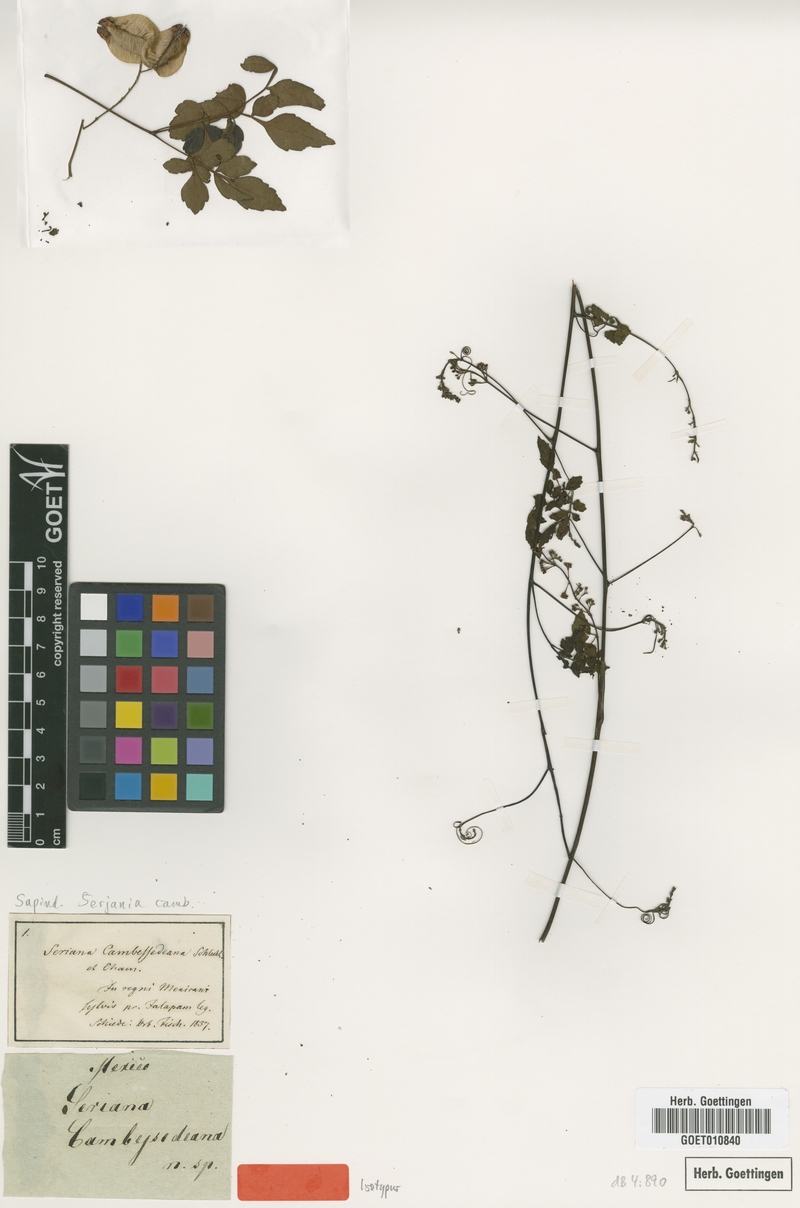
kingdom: Plantae
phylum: Tracheophyta
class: Magnoliopsida
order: Sapindales
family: Sapindaceae
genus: Serjania
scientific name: Serjania adiantoides
